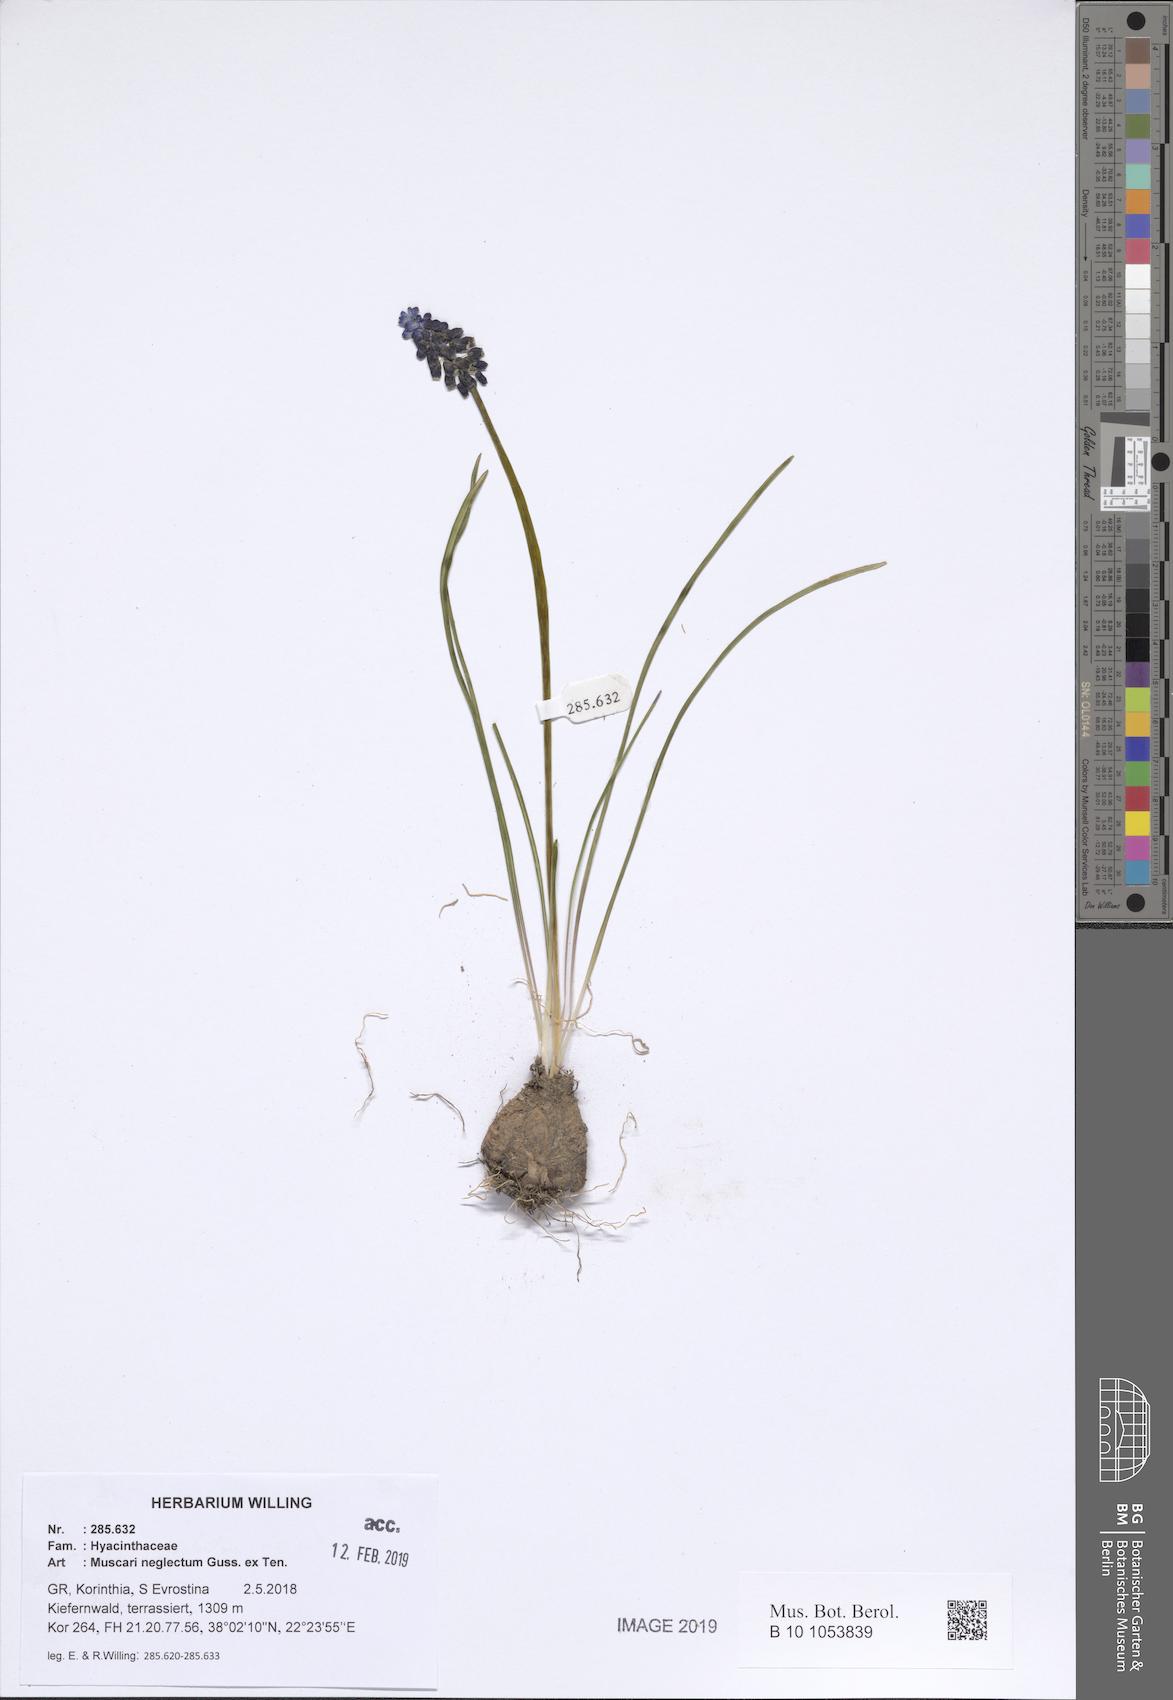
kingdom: Plantae
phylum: Tracheophyta
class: Liliopsida
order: Asparagales
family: Asparagaceae
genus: Muscari
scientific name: Muscari neglectum
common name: Grape-hyacinth
